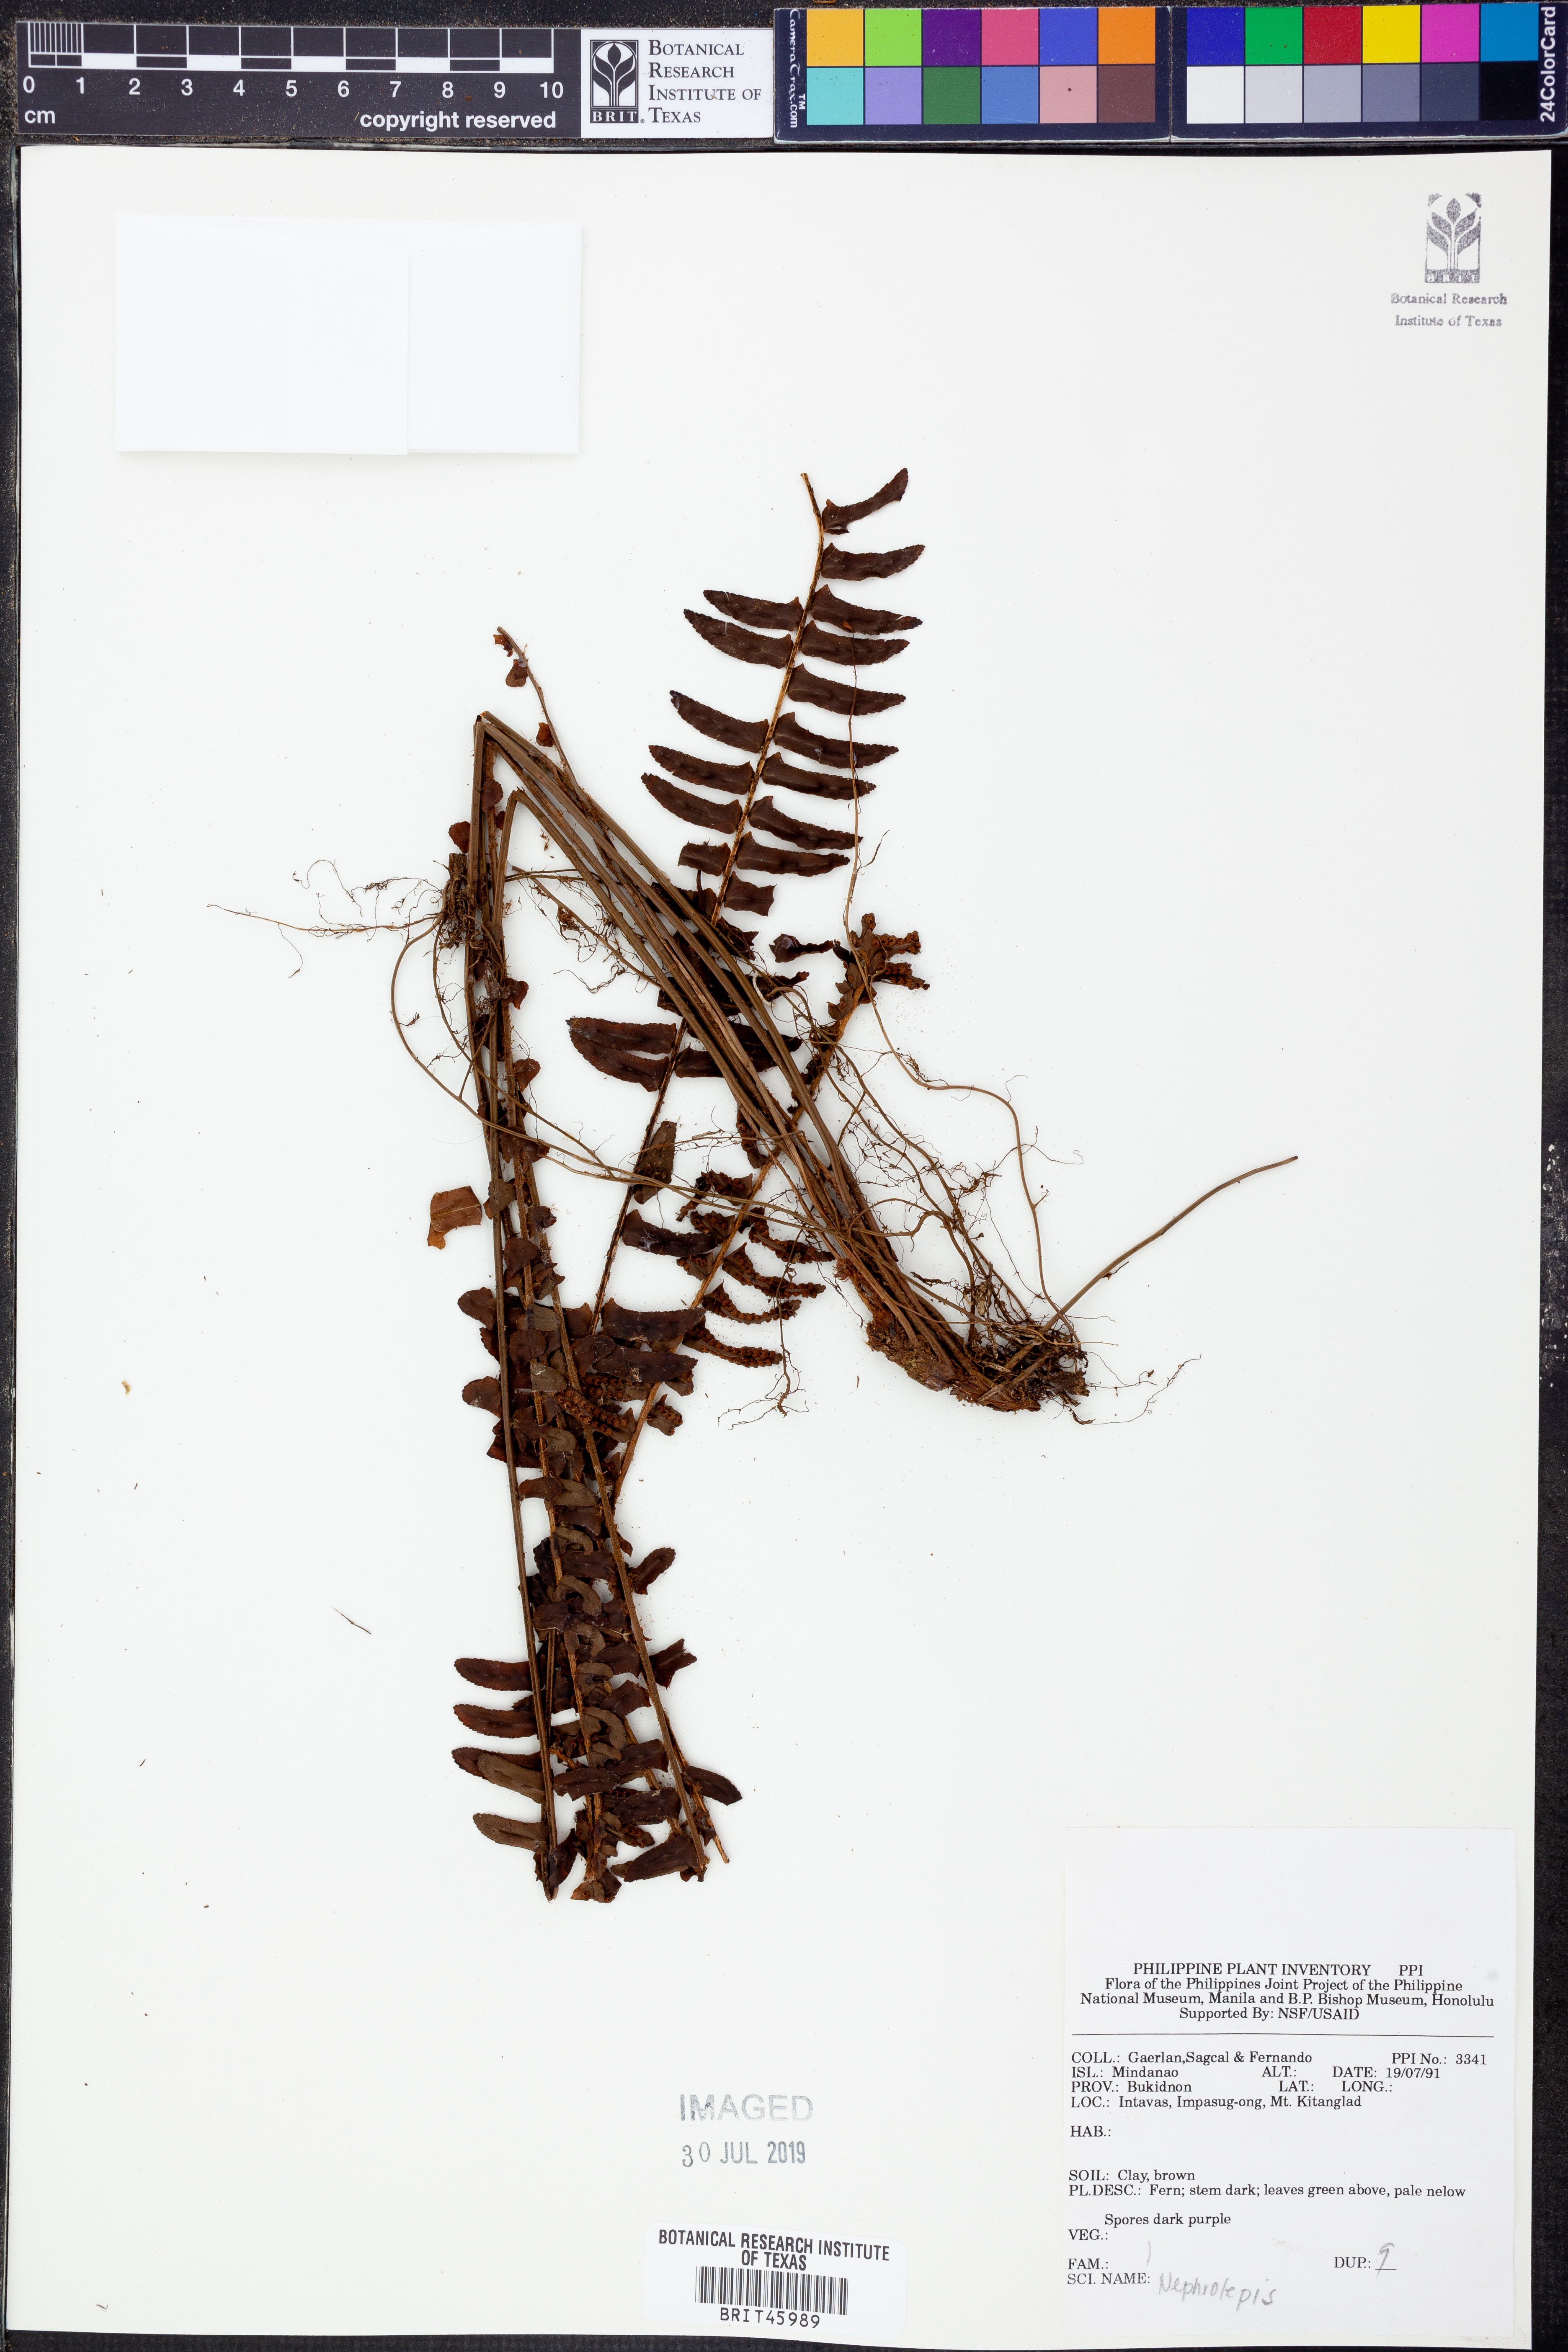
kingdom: Plantae
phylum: Tracheophyta
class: Polypodiopsida
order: Polypodiales
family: Nephrolepidaceae
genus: Nephrolepis
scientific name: Nephrolepis
